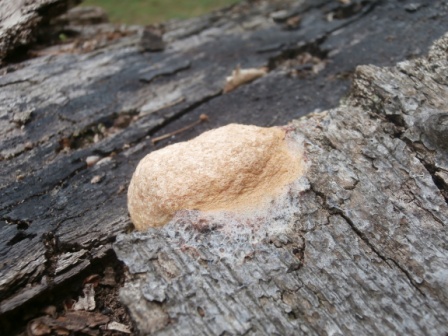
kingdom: Protozoa
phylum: Mycetozoa
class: Myxomycetes
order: Physarales
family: Physaraceae
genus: Fuligo
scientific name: Fuligo septica
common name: Dog vomit slime mold
